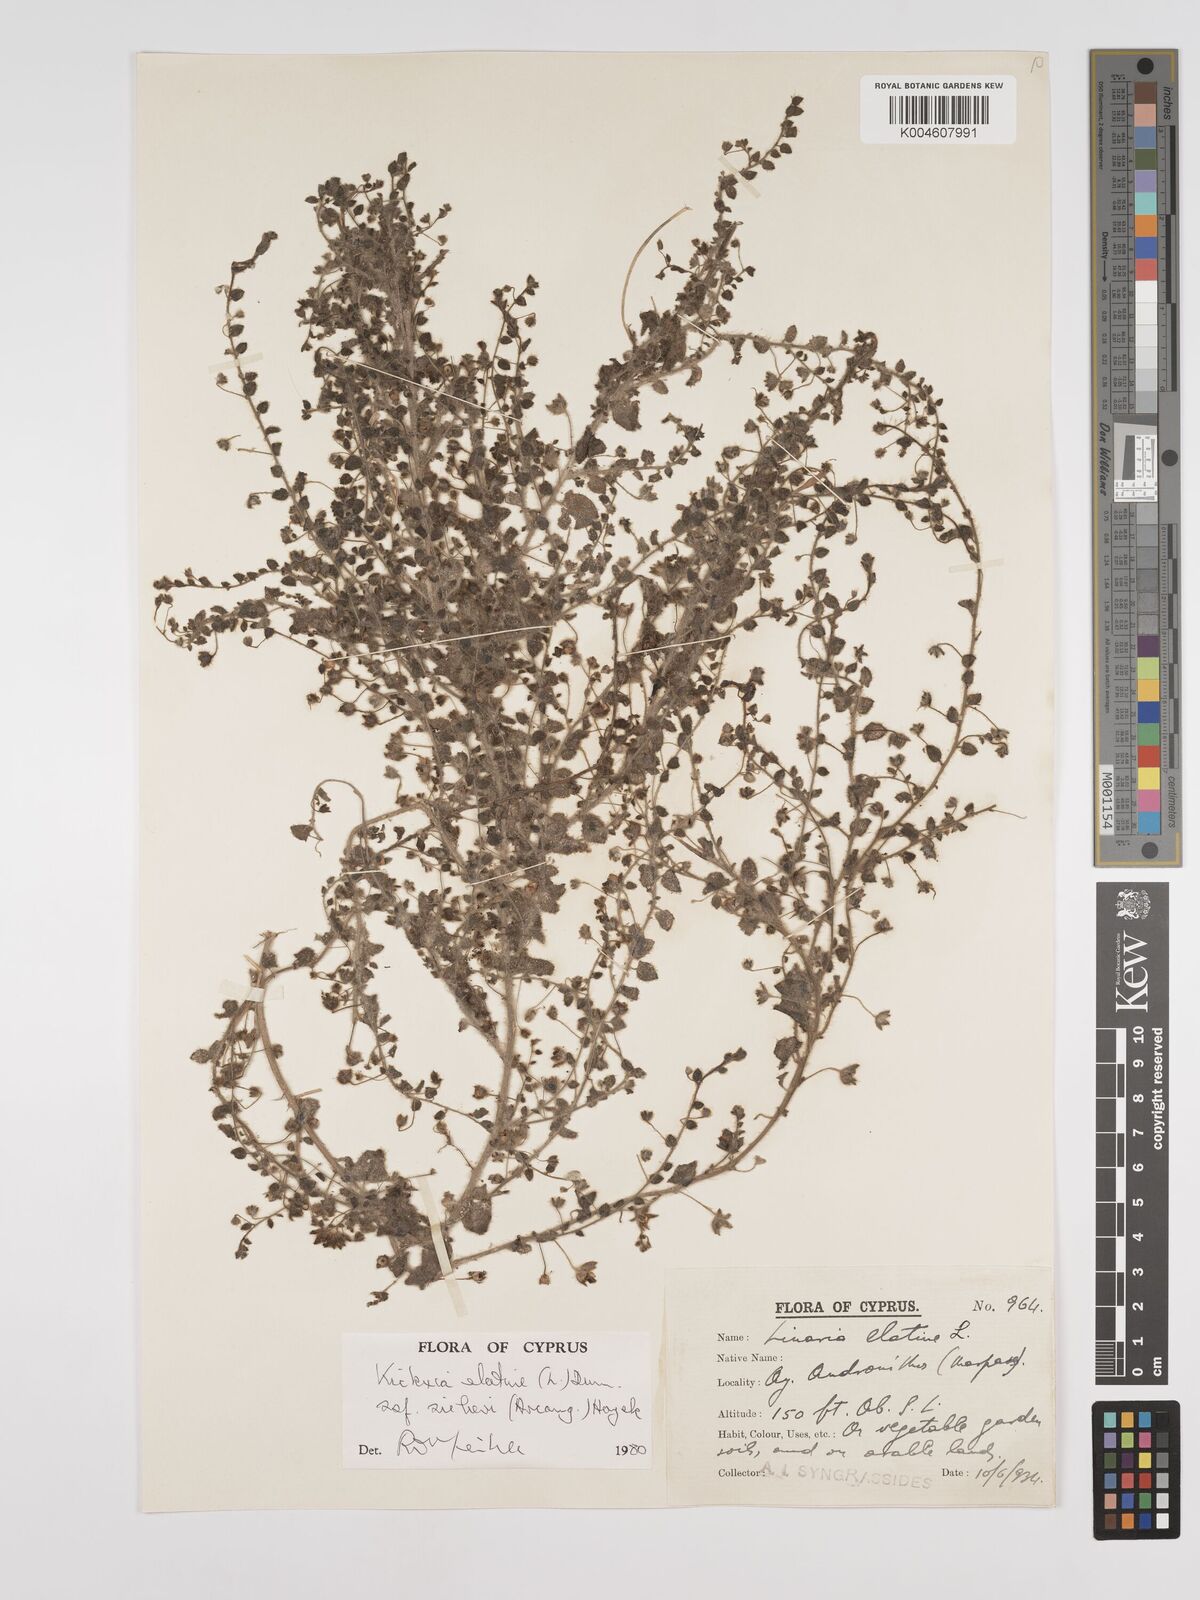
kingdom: Plantae
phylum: Tracheophyta
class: Magnoliopsida
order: Lamiales
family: Plantaginaceae
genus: Kickxia
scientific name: Kickxia elatine
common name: Sharp-leaved fluellen
